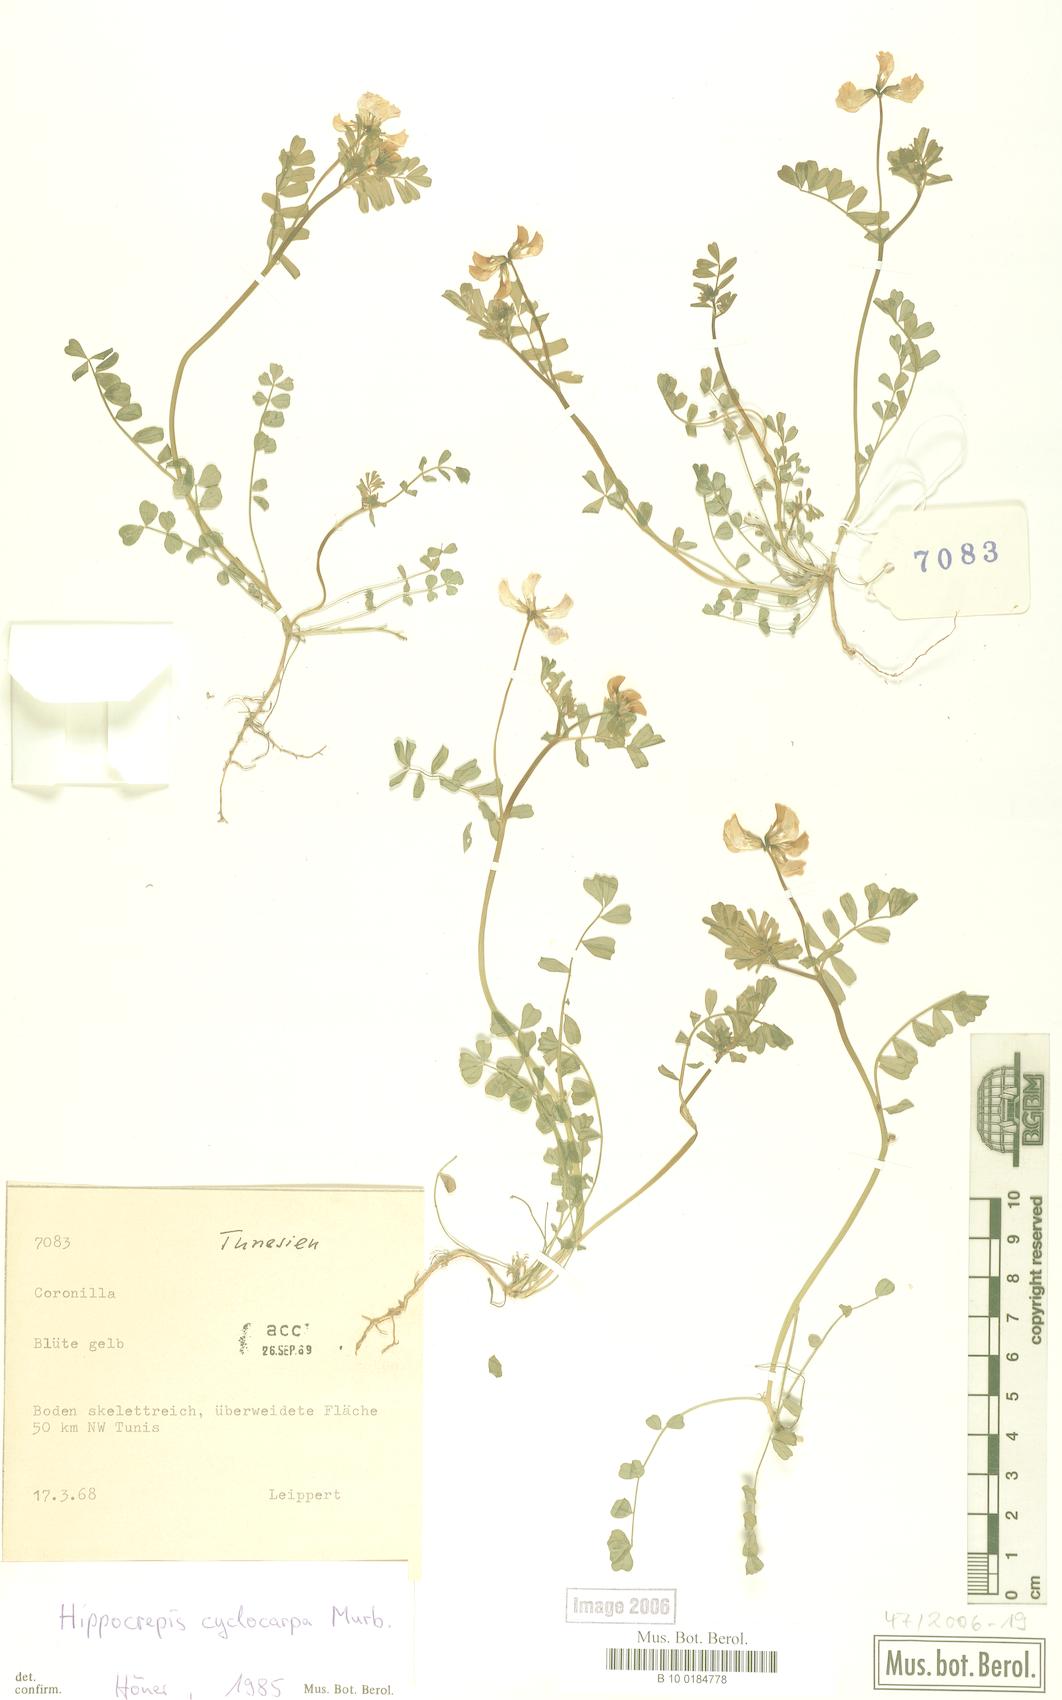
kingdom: Plantae
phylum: Tracheophyta
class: Magnoliopsida
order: Fabales
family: Fabaceae
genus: Hippocrepis
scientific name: Hippocrepis cyclocarpa
